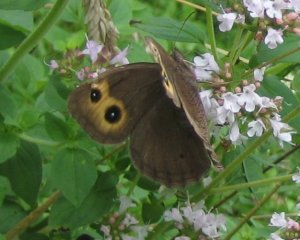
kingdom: Animalia
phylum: Arthropoda
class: Insecta
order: Lepidoptera
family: Nymphalidae
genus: Cercyonis
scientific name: Cercyonis pegala
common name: Common Wood-Nymph
